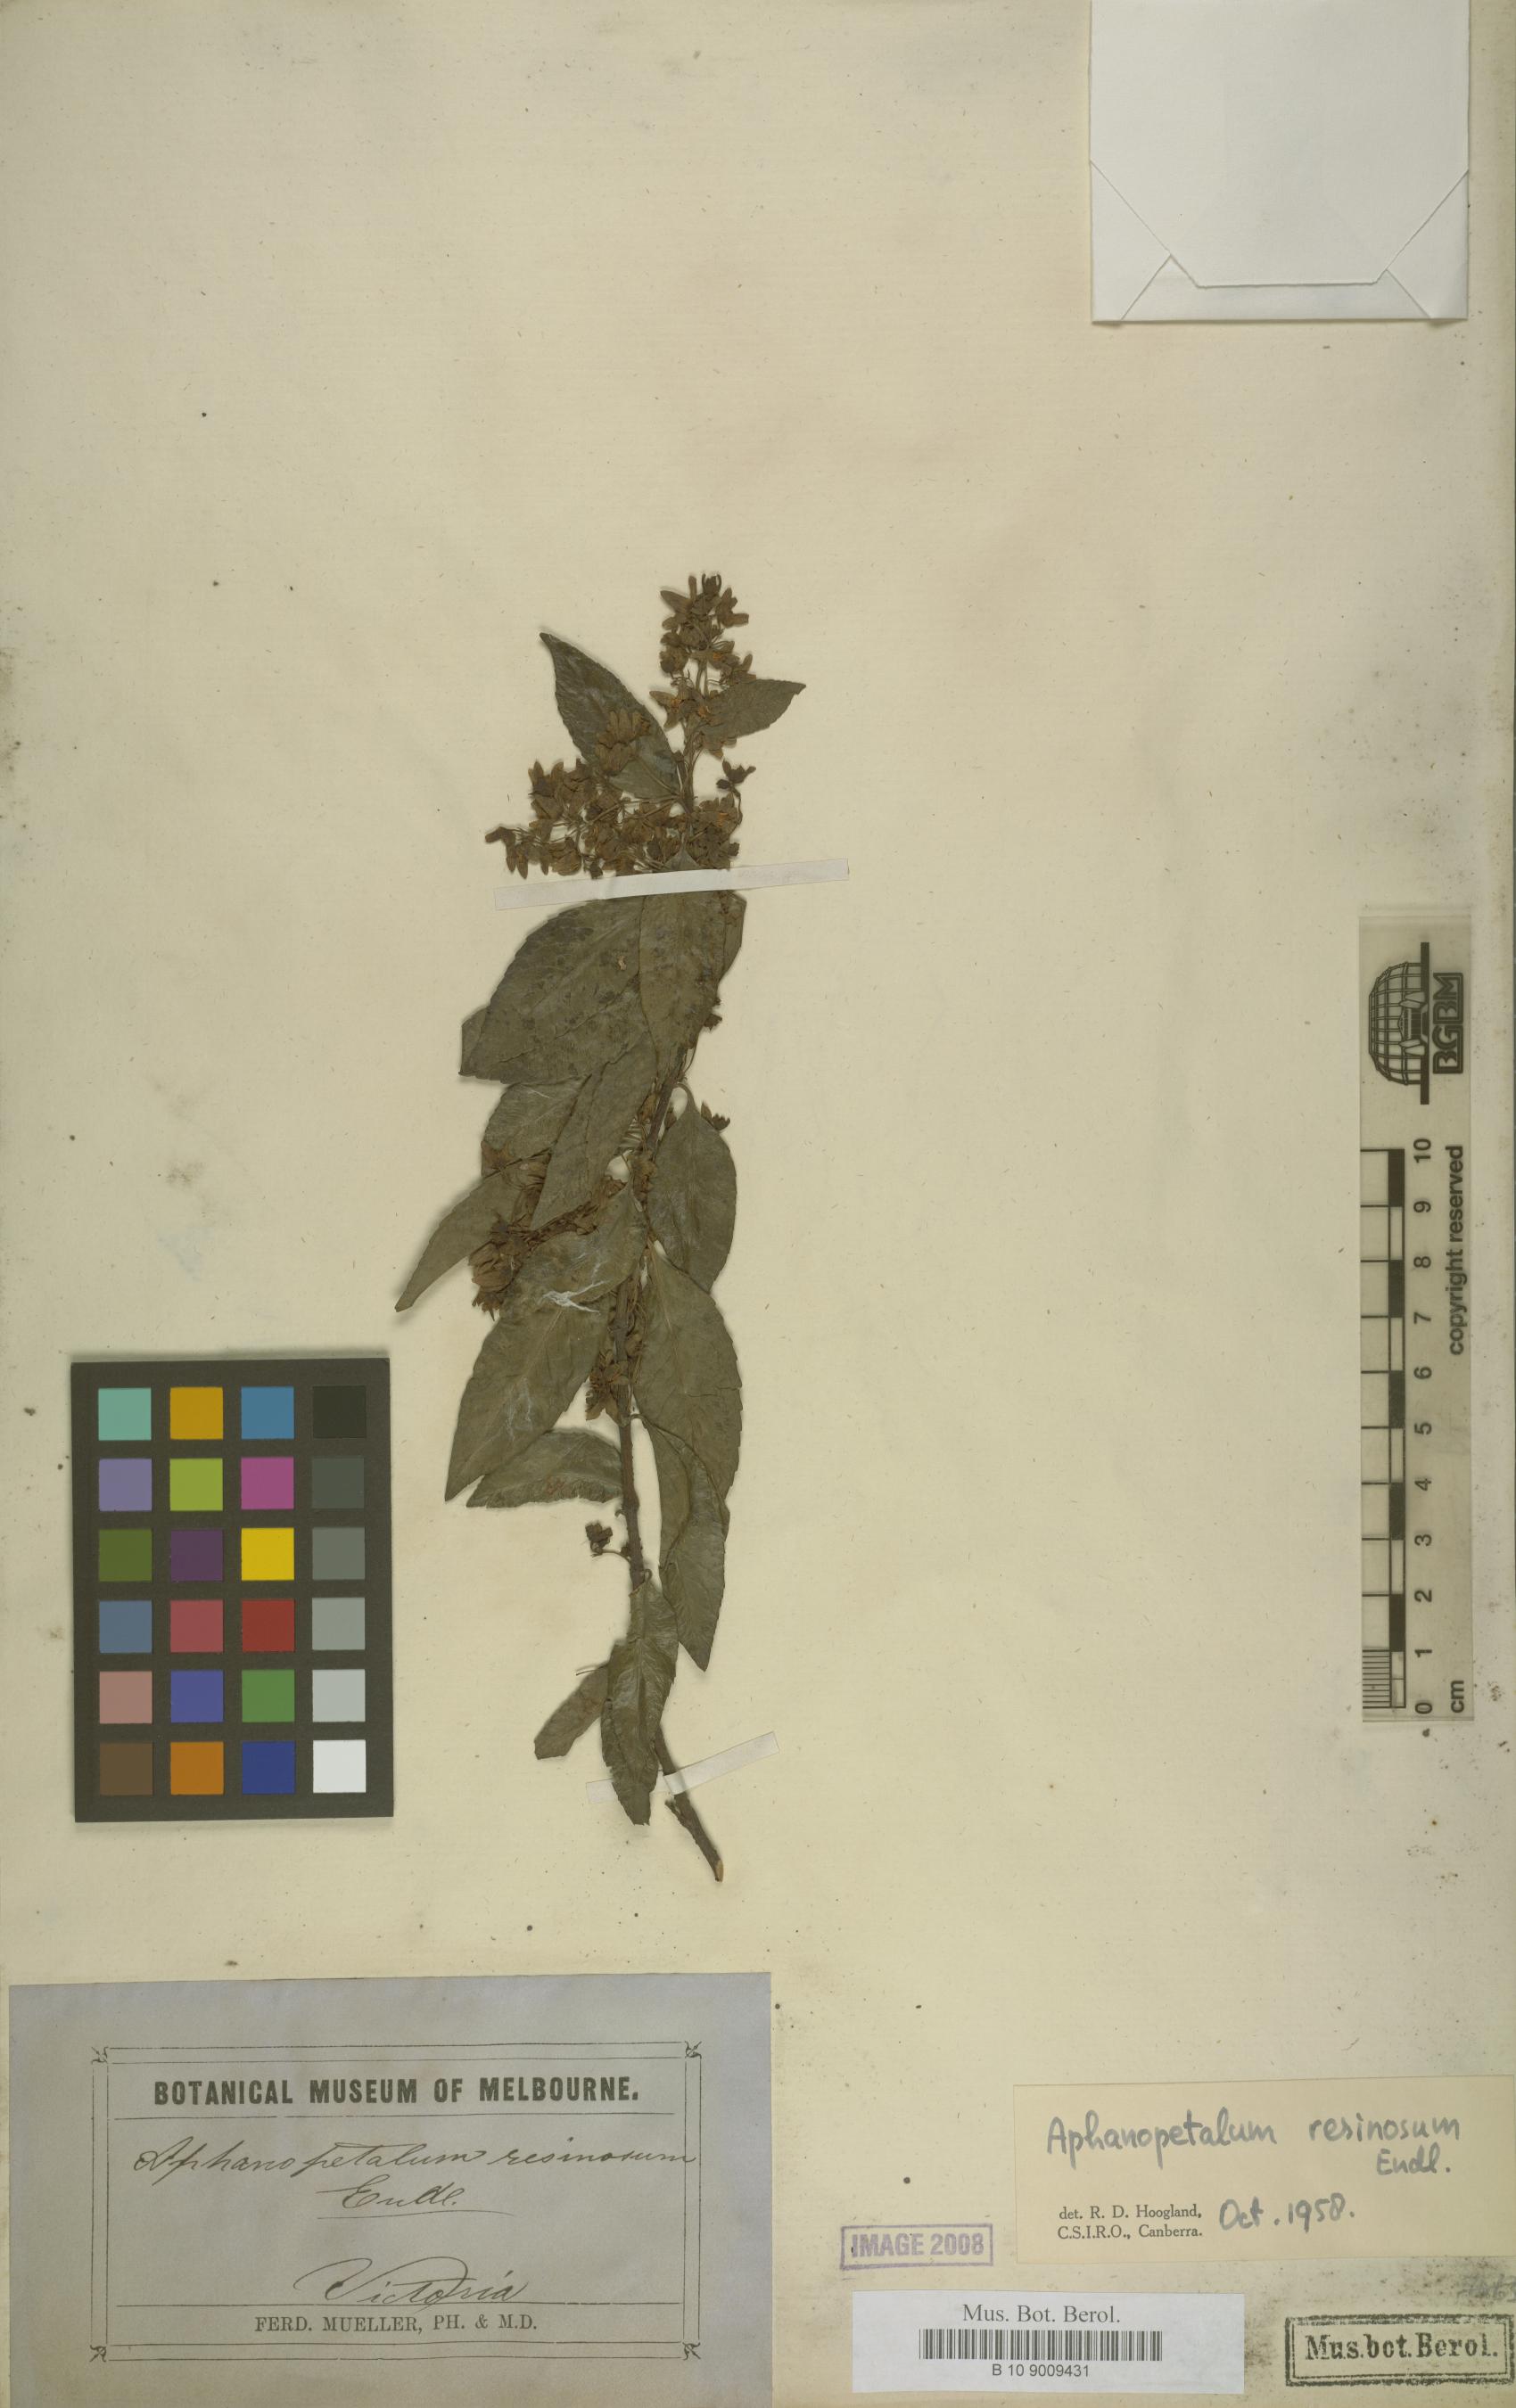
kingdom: Plantae
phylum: Tracheophyta
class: Magnoliopsida
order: Saxifragales
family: Aphanopetalaceae
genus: Aphanopetalum
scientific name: Aphanopetalum resinosum
